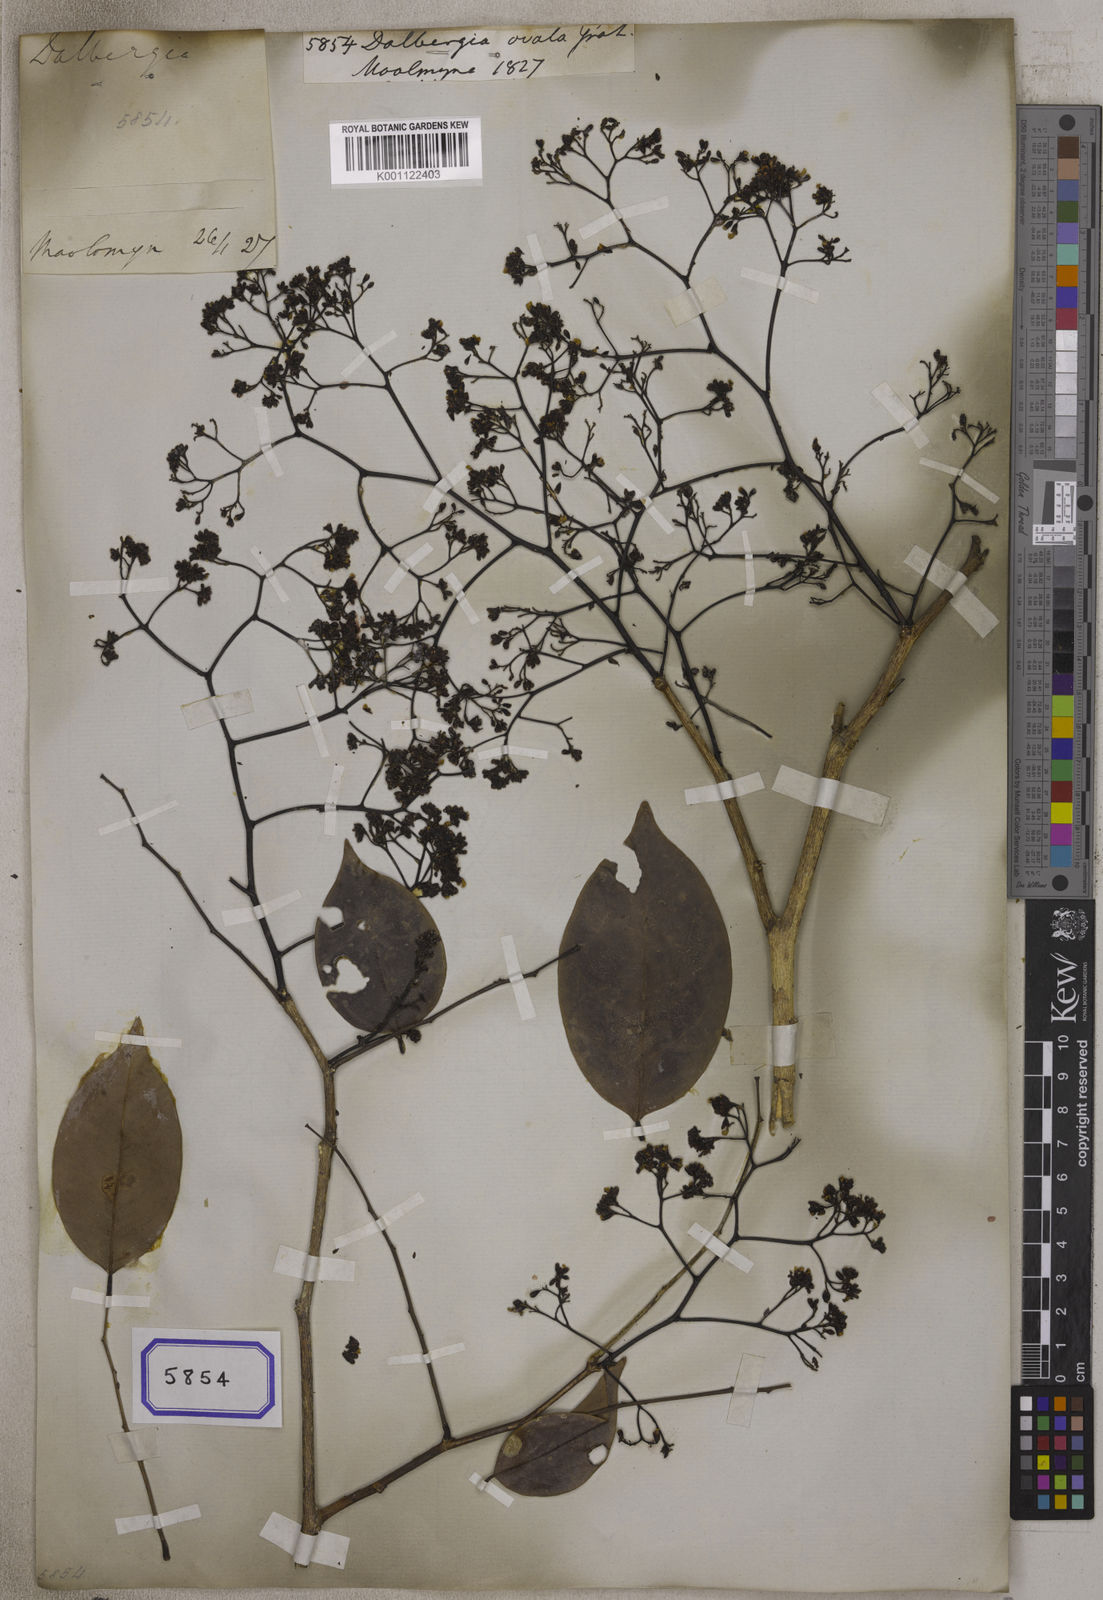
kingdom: Plantae
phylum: Tracheophyta
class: Magnoliopsida
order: Fabales
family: Fabaceae
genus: Dalbergia
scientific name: Dalbergia
